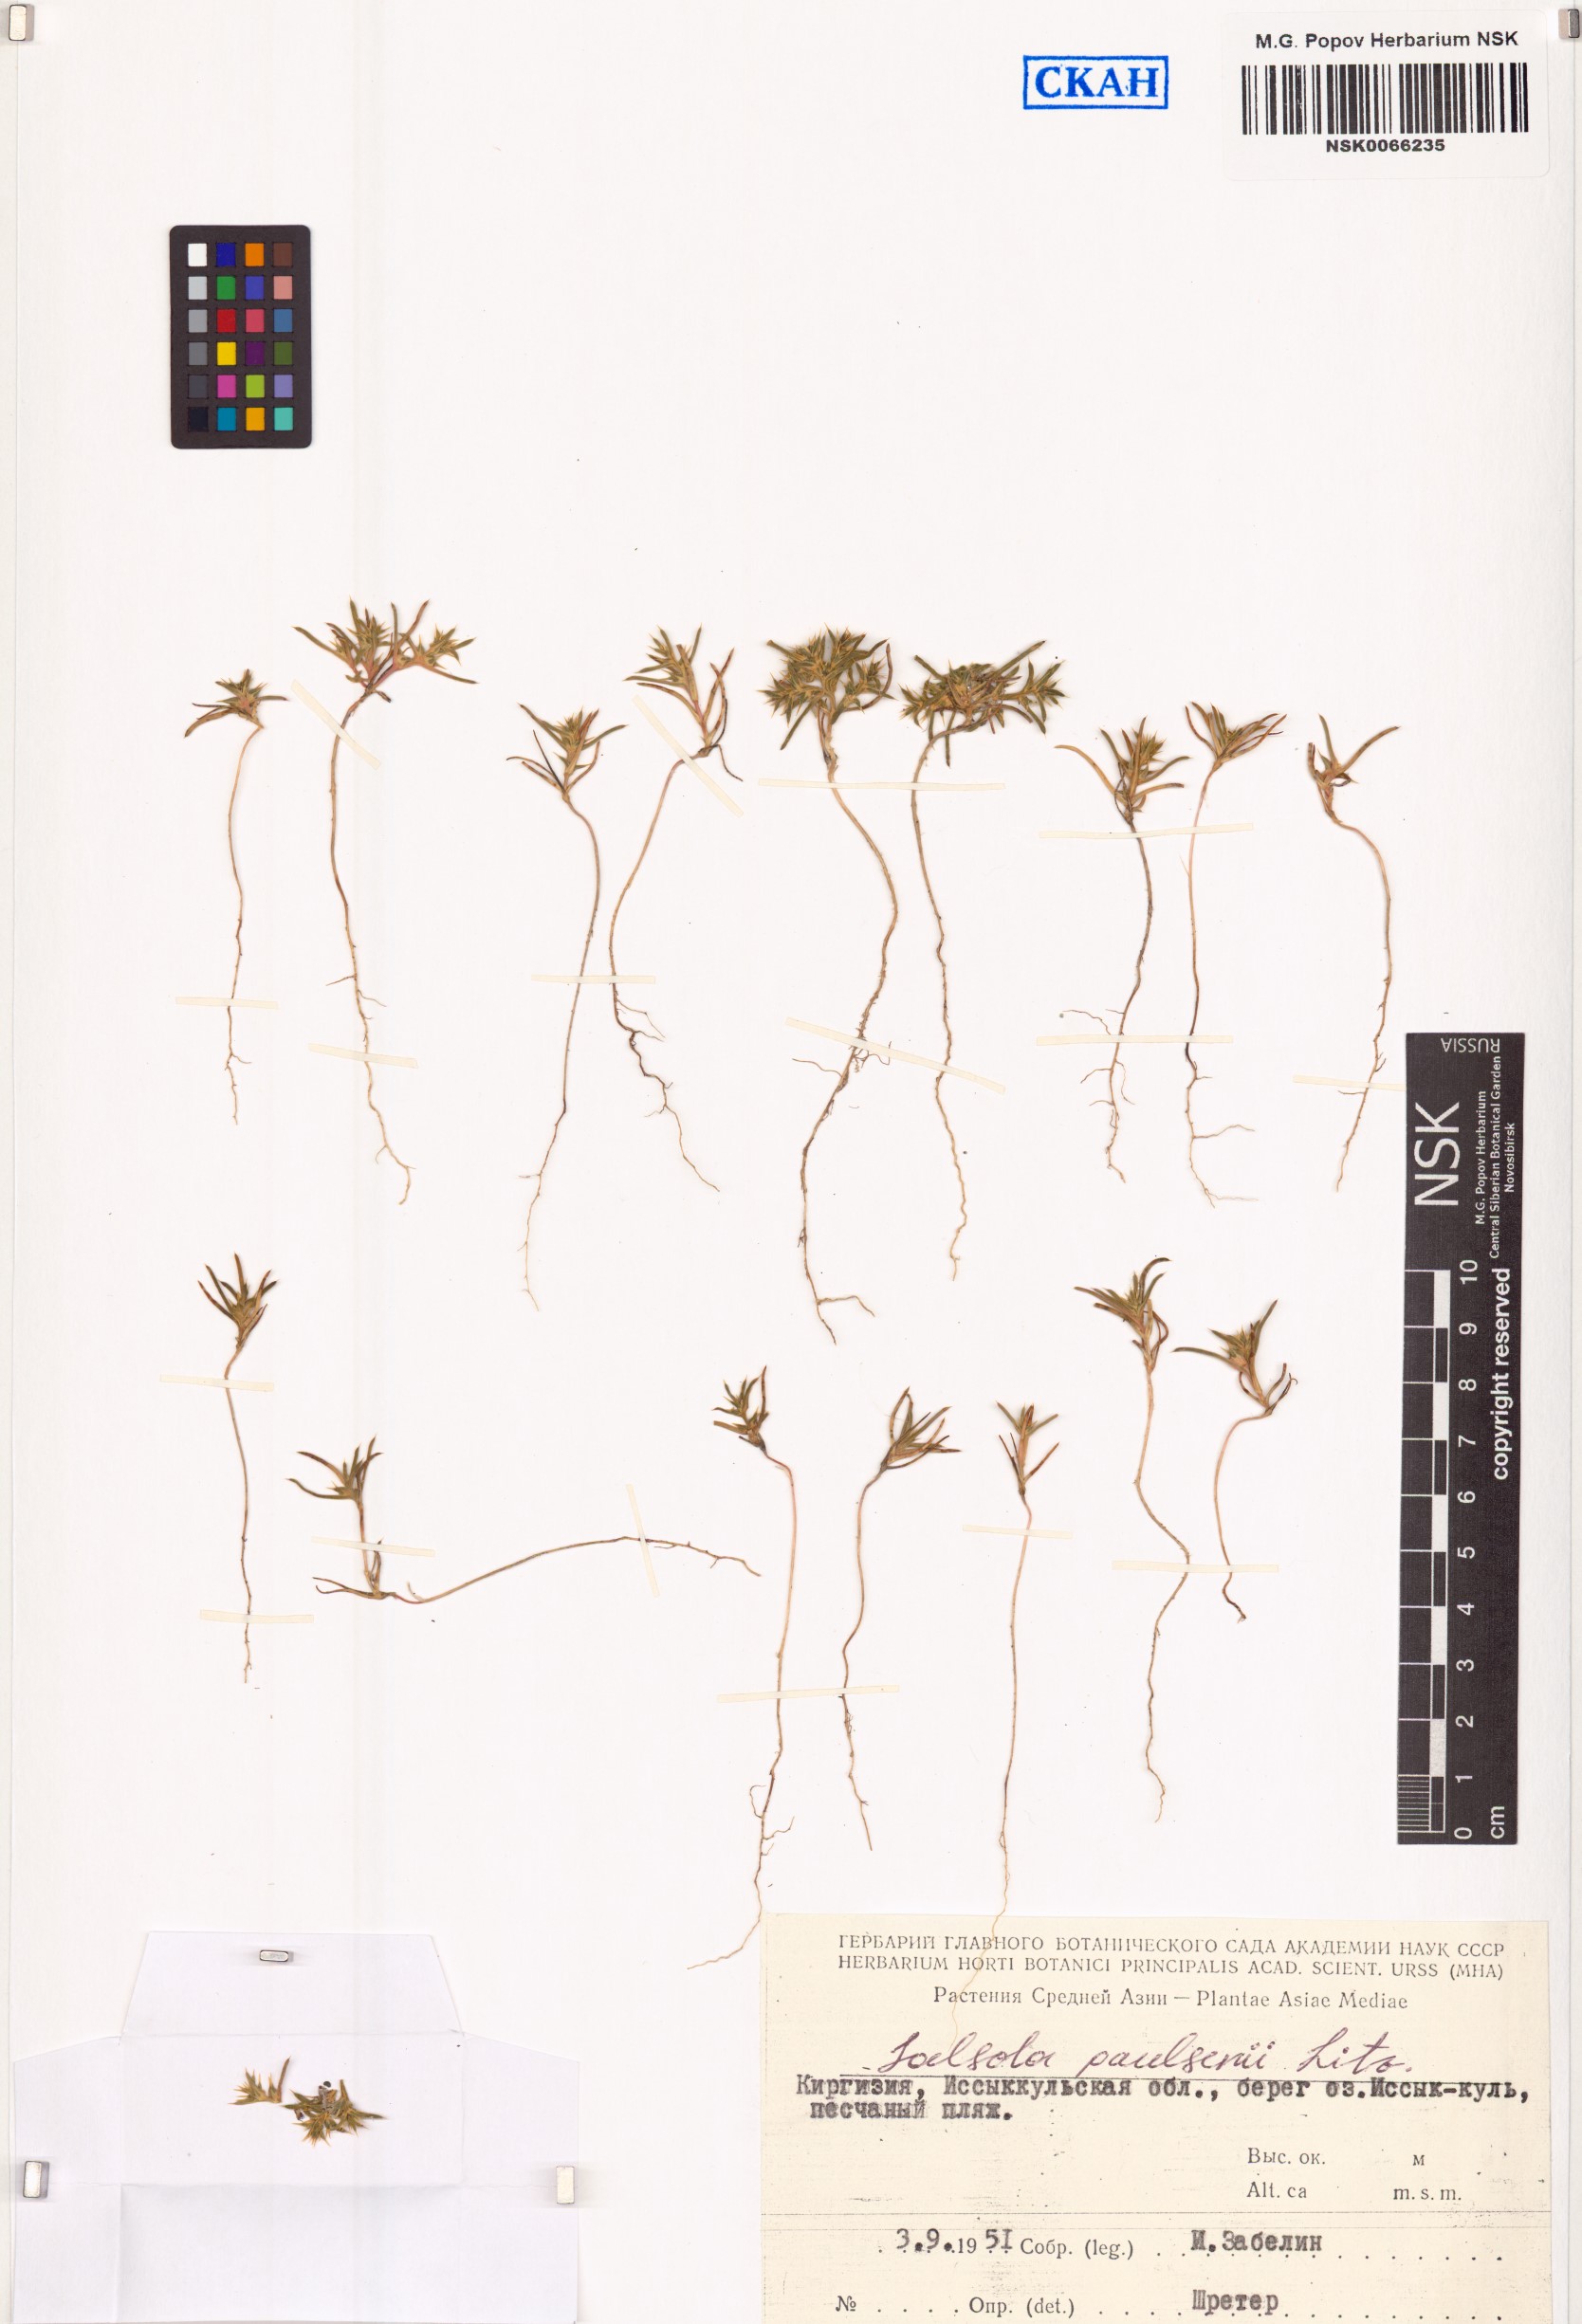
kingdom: Plantae
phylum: Tracheophyta
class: Magnoliopsida
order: Caryophyllales
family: Amaranthaceae
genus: Salsola
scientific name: Salsola paulsenii
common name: Barbwire russian thistle
